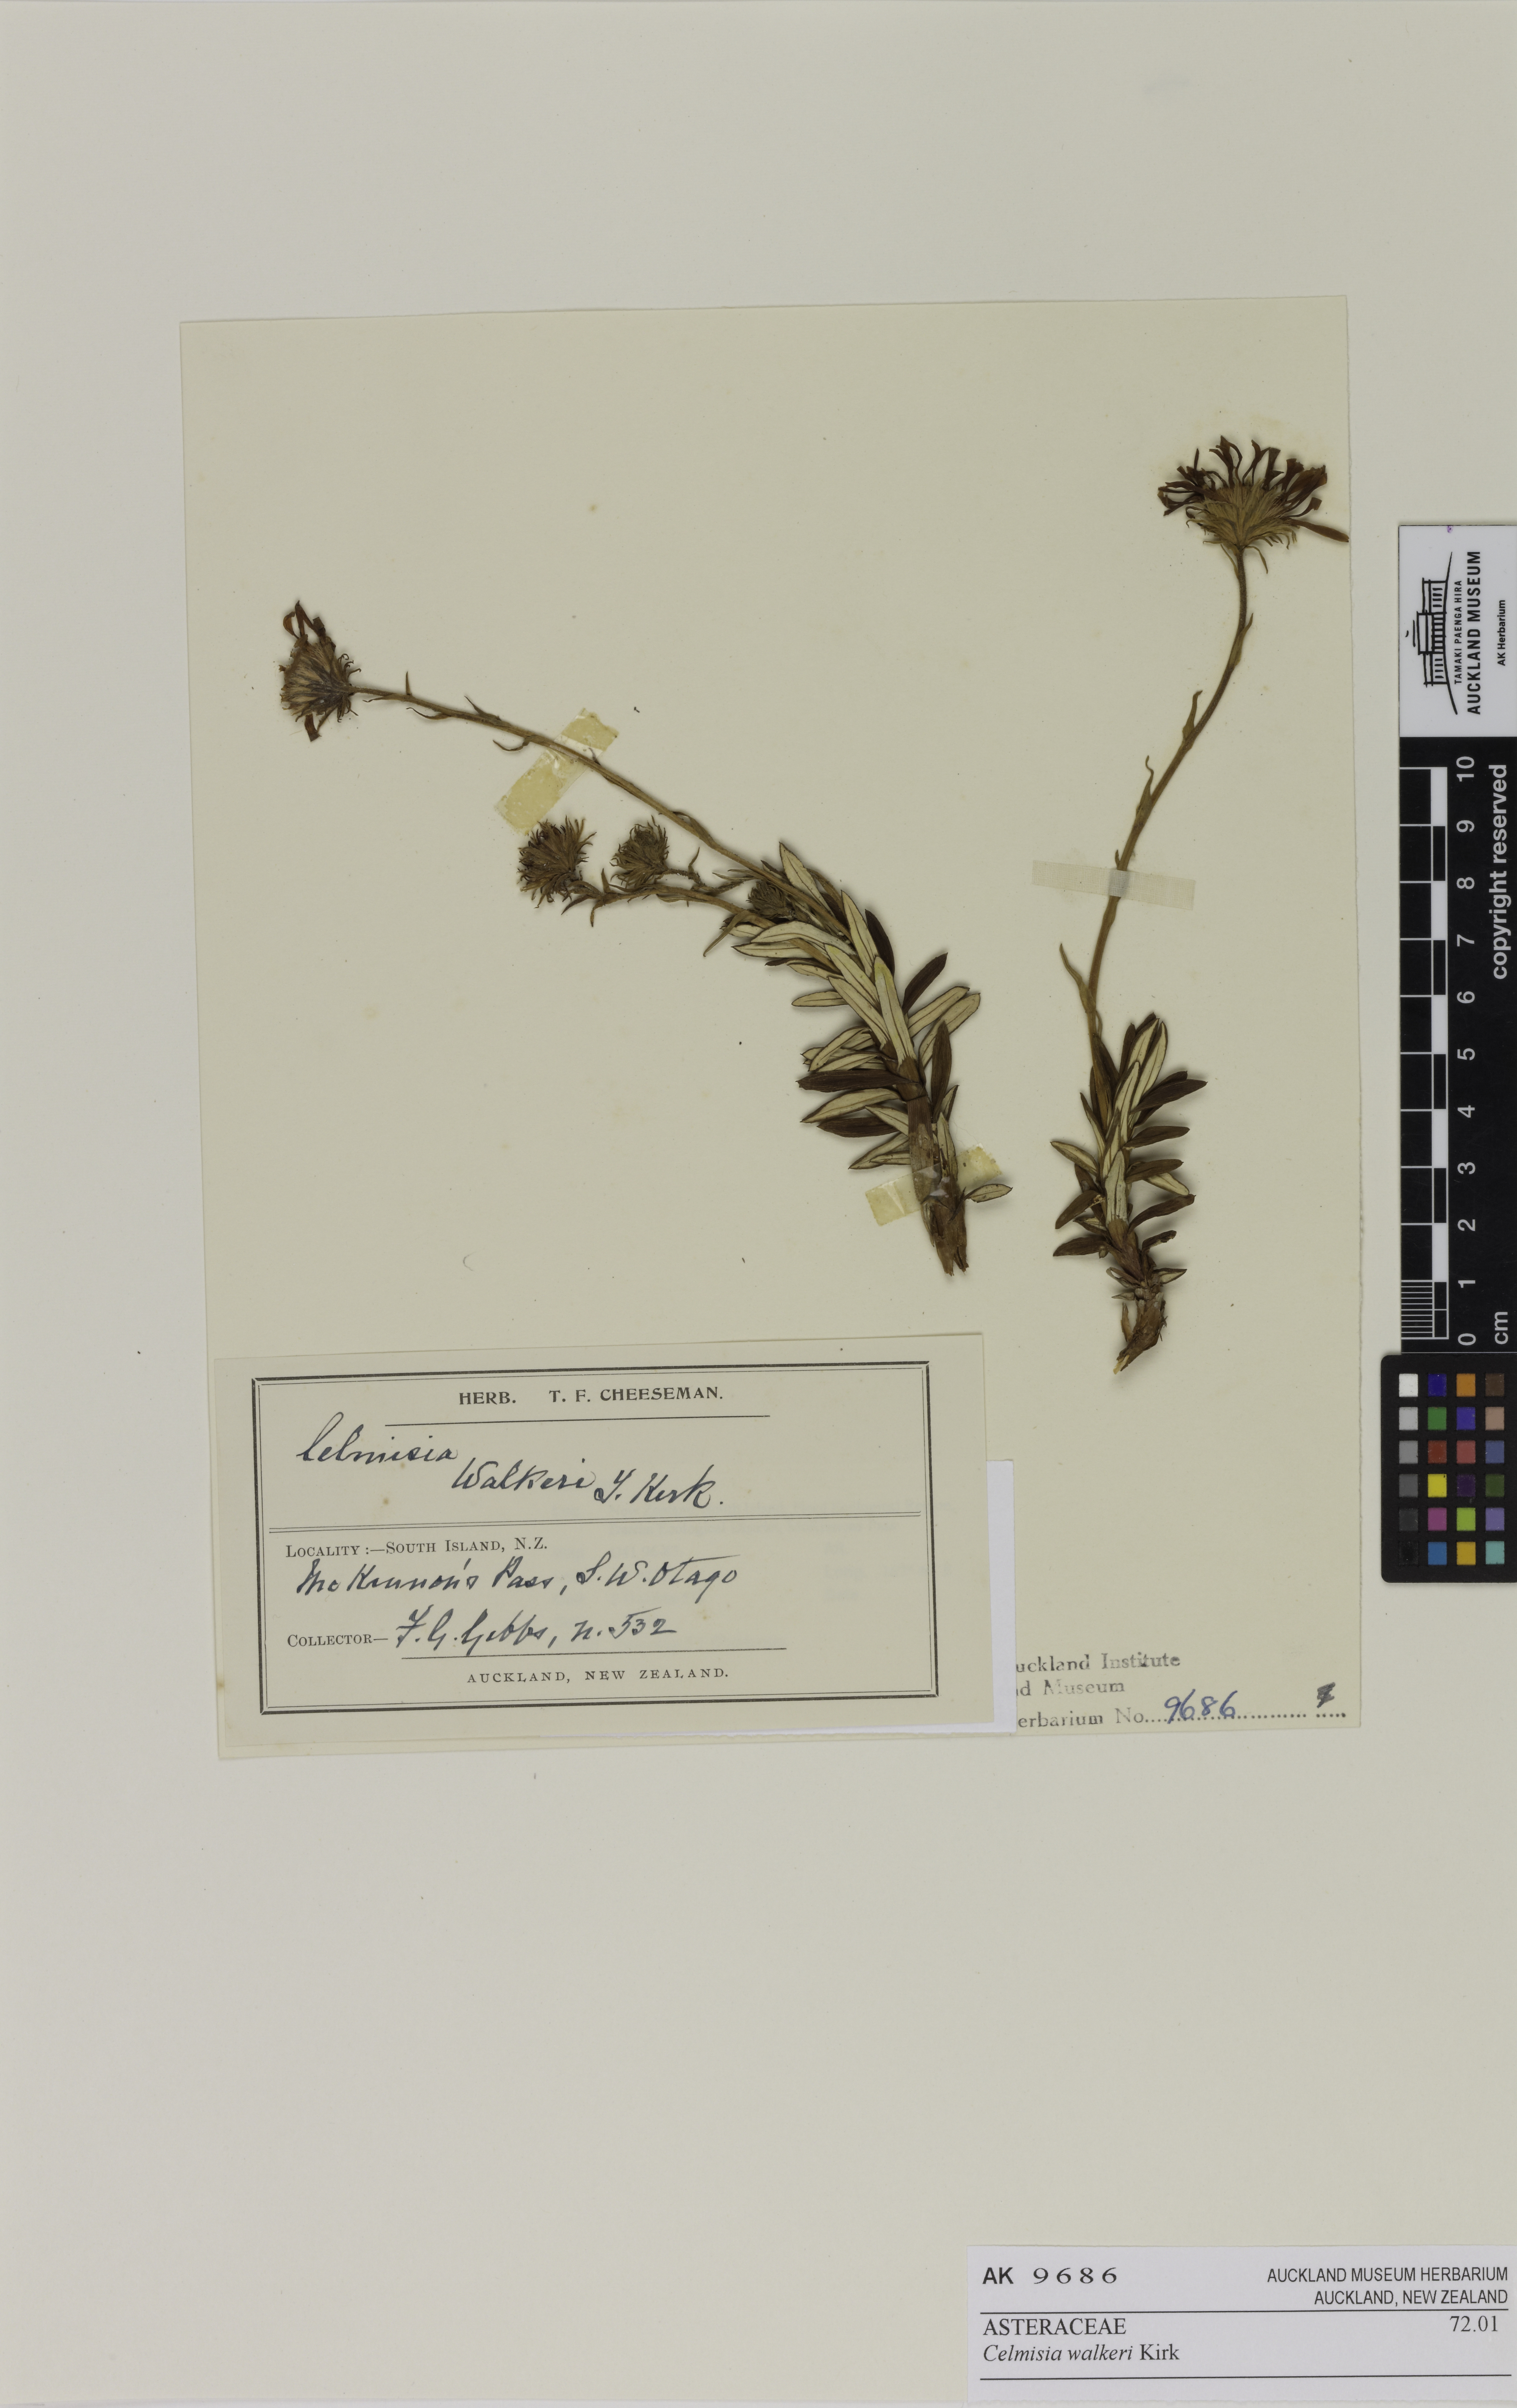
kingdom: Plantae
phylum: Tracheophyta
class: Magnoliopsida
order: Asterales
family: Asteraceae
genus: Celmisia
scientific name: Celmisia walkeri
